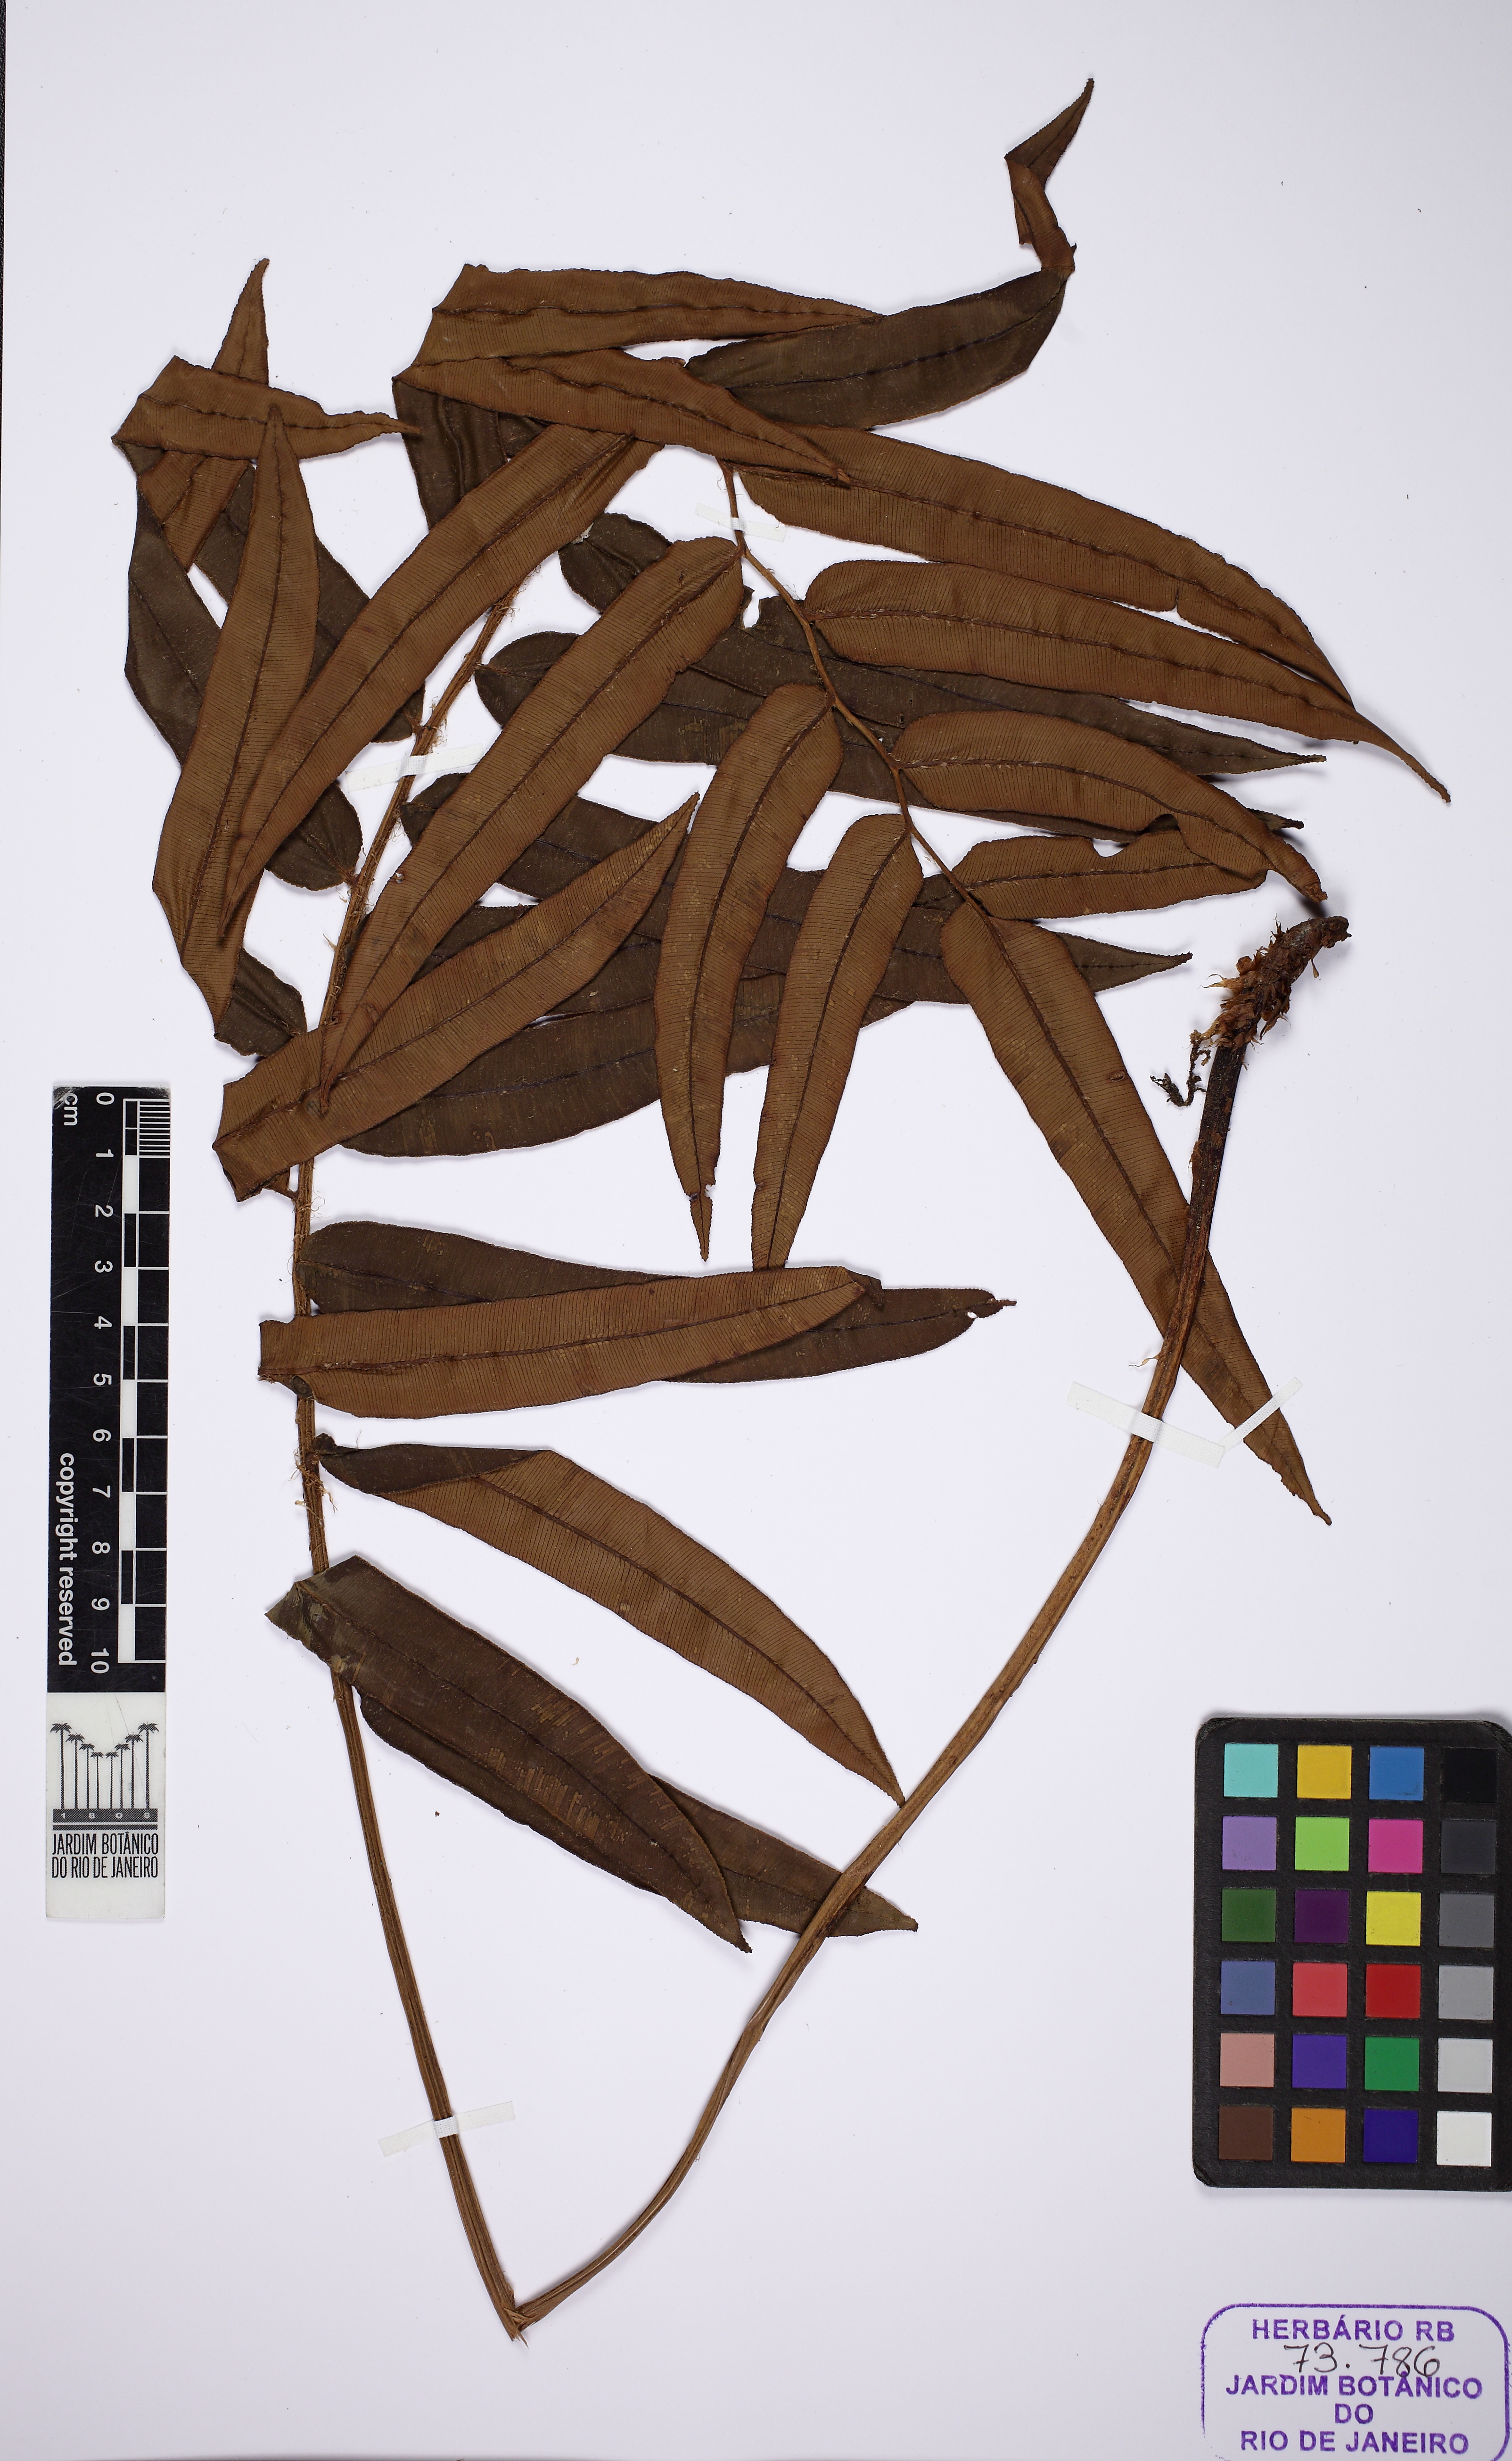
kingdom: Plantae
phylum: Tracheophyta
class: Polypodiopsida
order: Polypodiales
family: Blechnaceae
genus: Parablechnum
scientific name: Parablechnum cordatum
